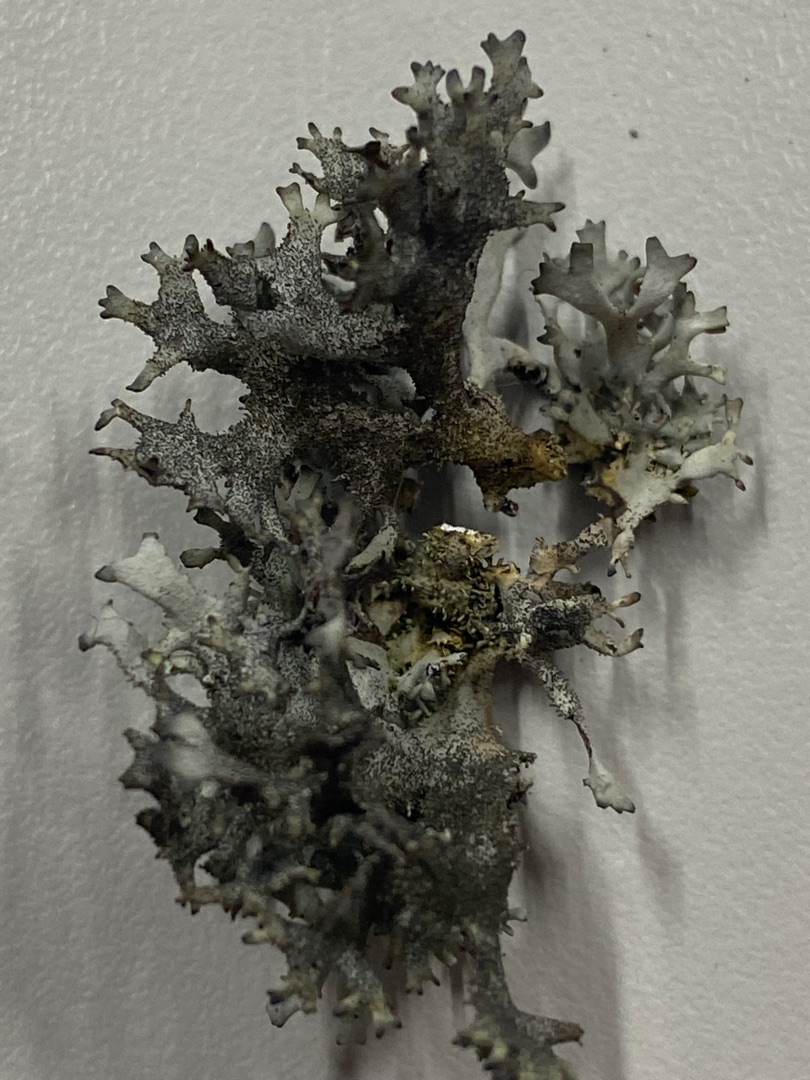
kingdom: Fungi
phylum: Ascomycota
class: Lecanoromycetes
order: Lecanorales
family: Parmeliaceae
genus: Pseudevernia
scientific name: Pseudevernia furfuracea
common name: Grå fyrrelav
